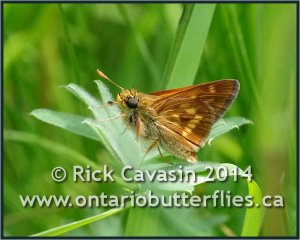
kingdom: Animalia
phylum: Arthropoda
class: Insecta
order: Lepidoptera
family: Hesperiidae
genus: Polites
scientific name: Polites
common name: Long Dash Skipper
